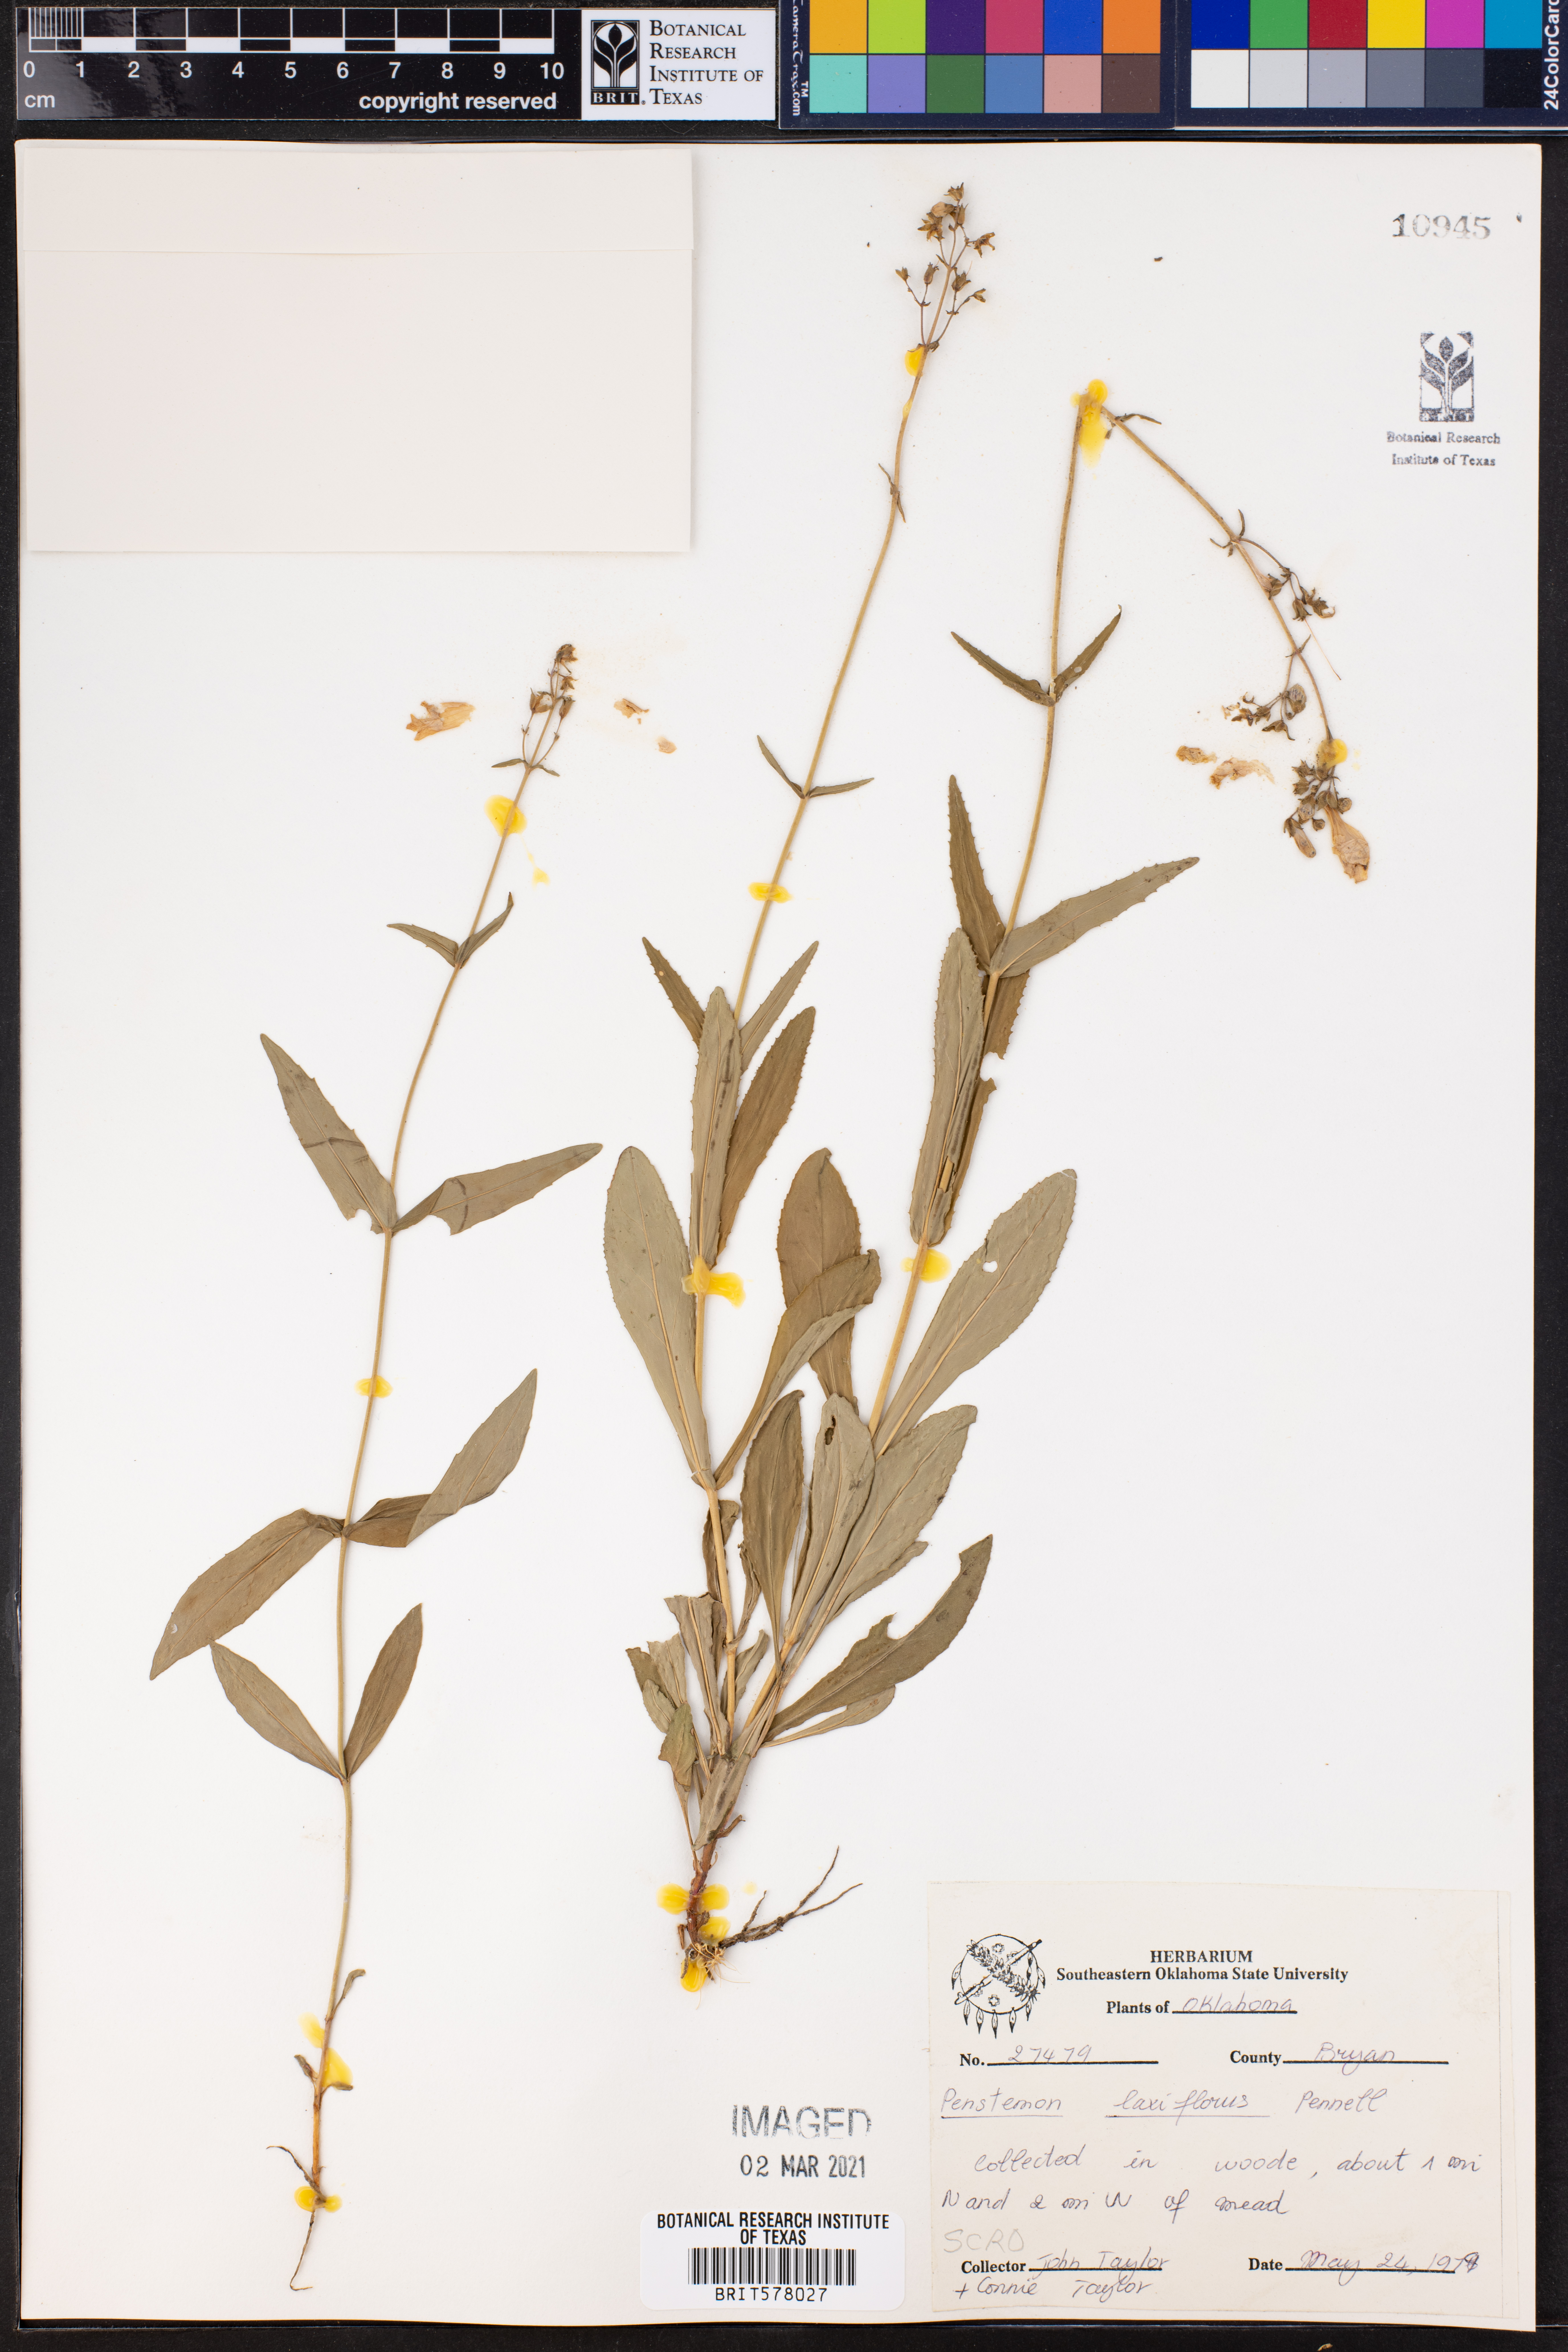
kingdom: Plantae
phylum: Tracheophyta
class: Magnoliopsida
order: Lamiales
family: Plantaginaceae
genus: Penstemon
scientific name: Penstemon laxiflorus
